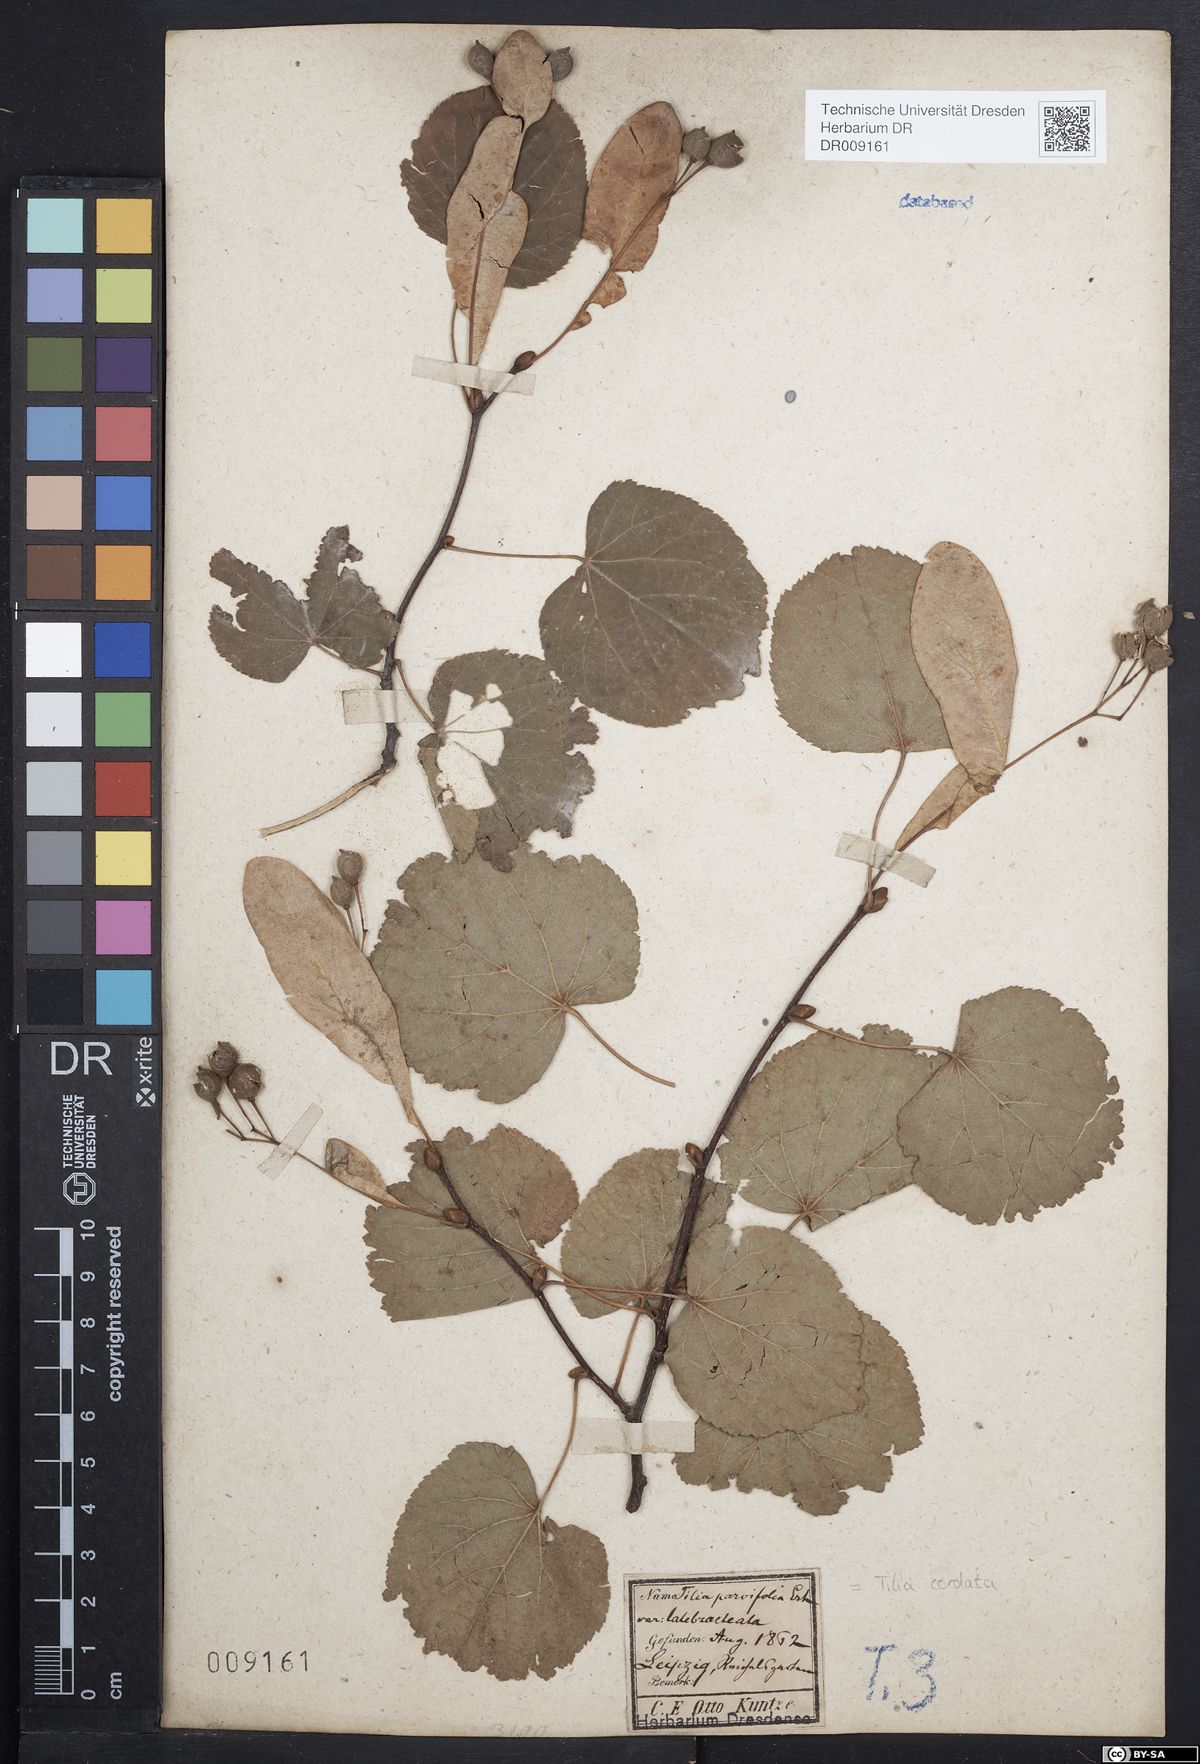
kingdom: Plantae
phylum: Tracheophyta
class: Magnoliopsida
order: Malvales
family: Malvaceae
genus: Tilia
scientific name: Tilia cordata
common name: Small-leaved lime
